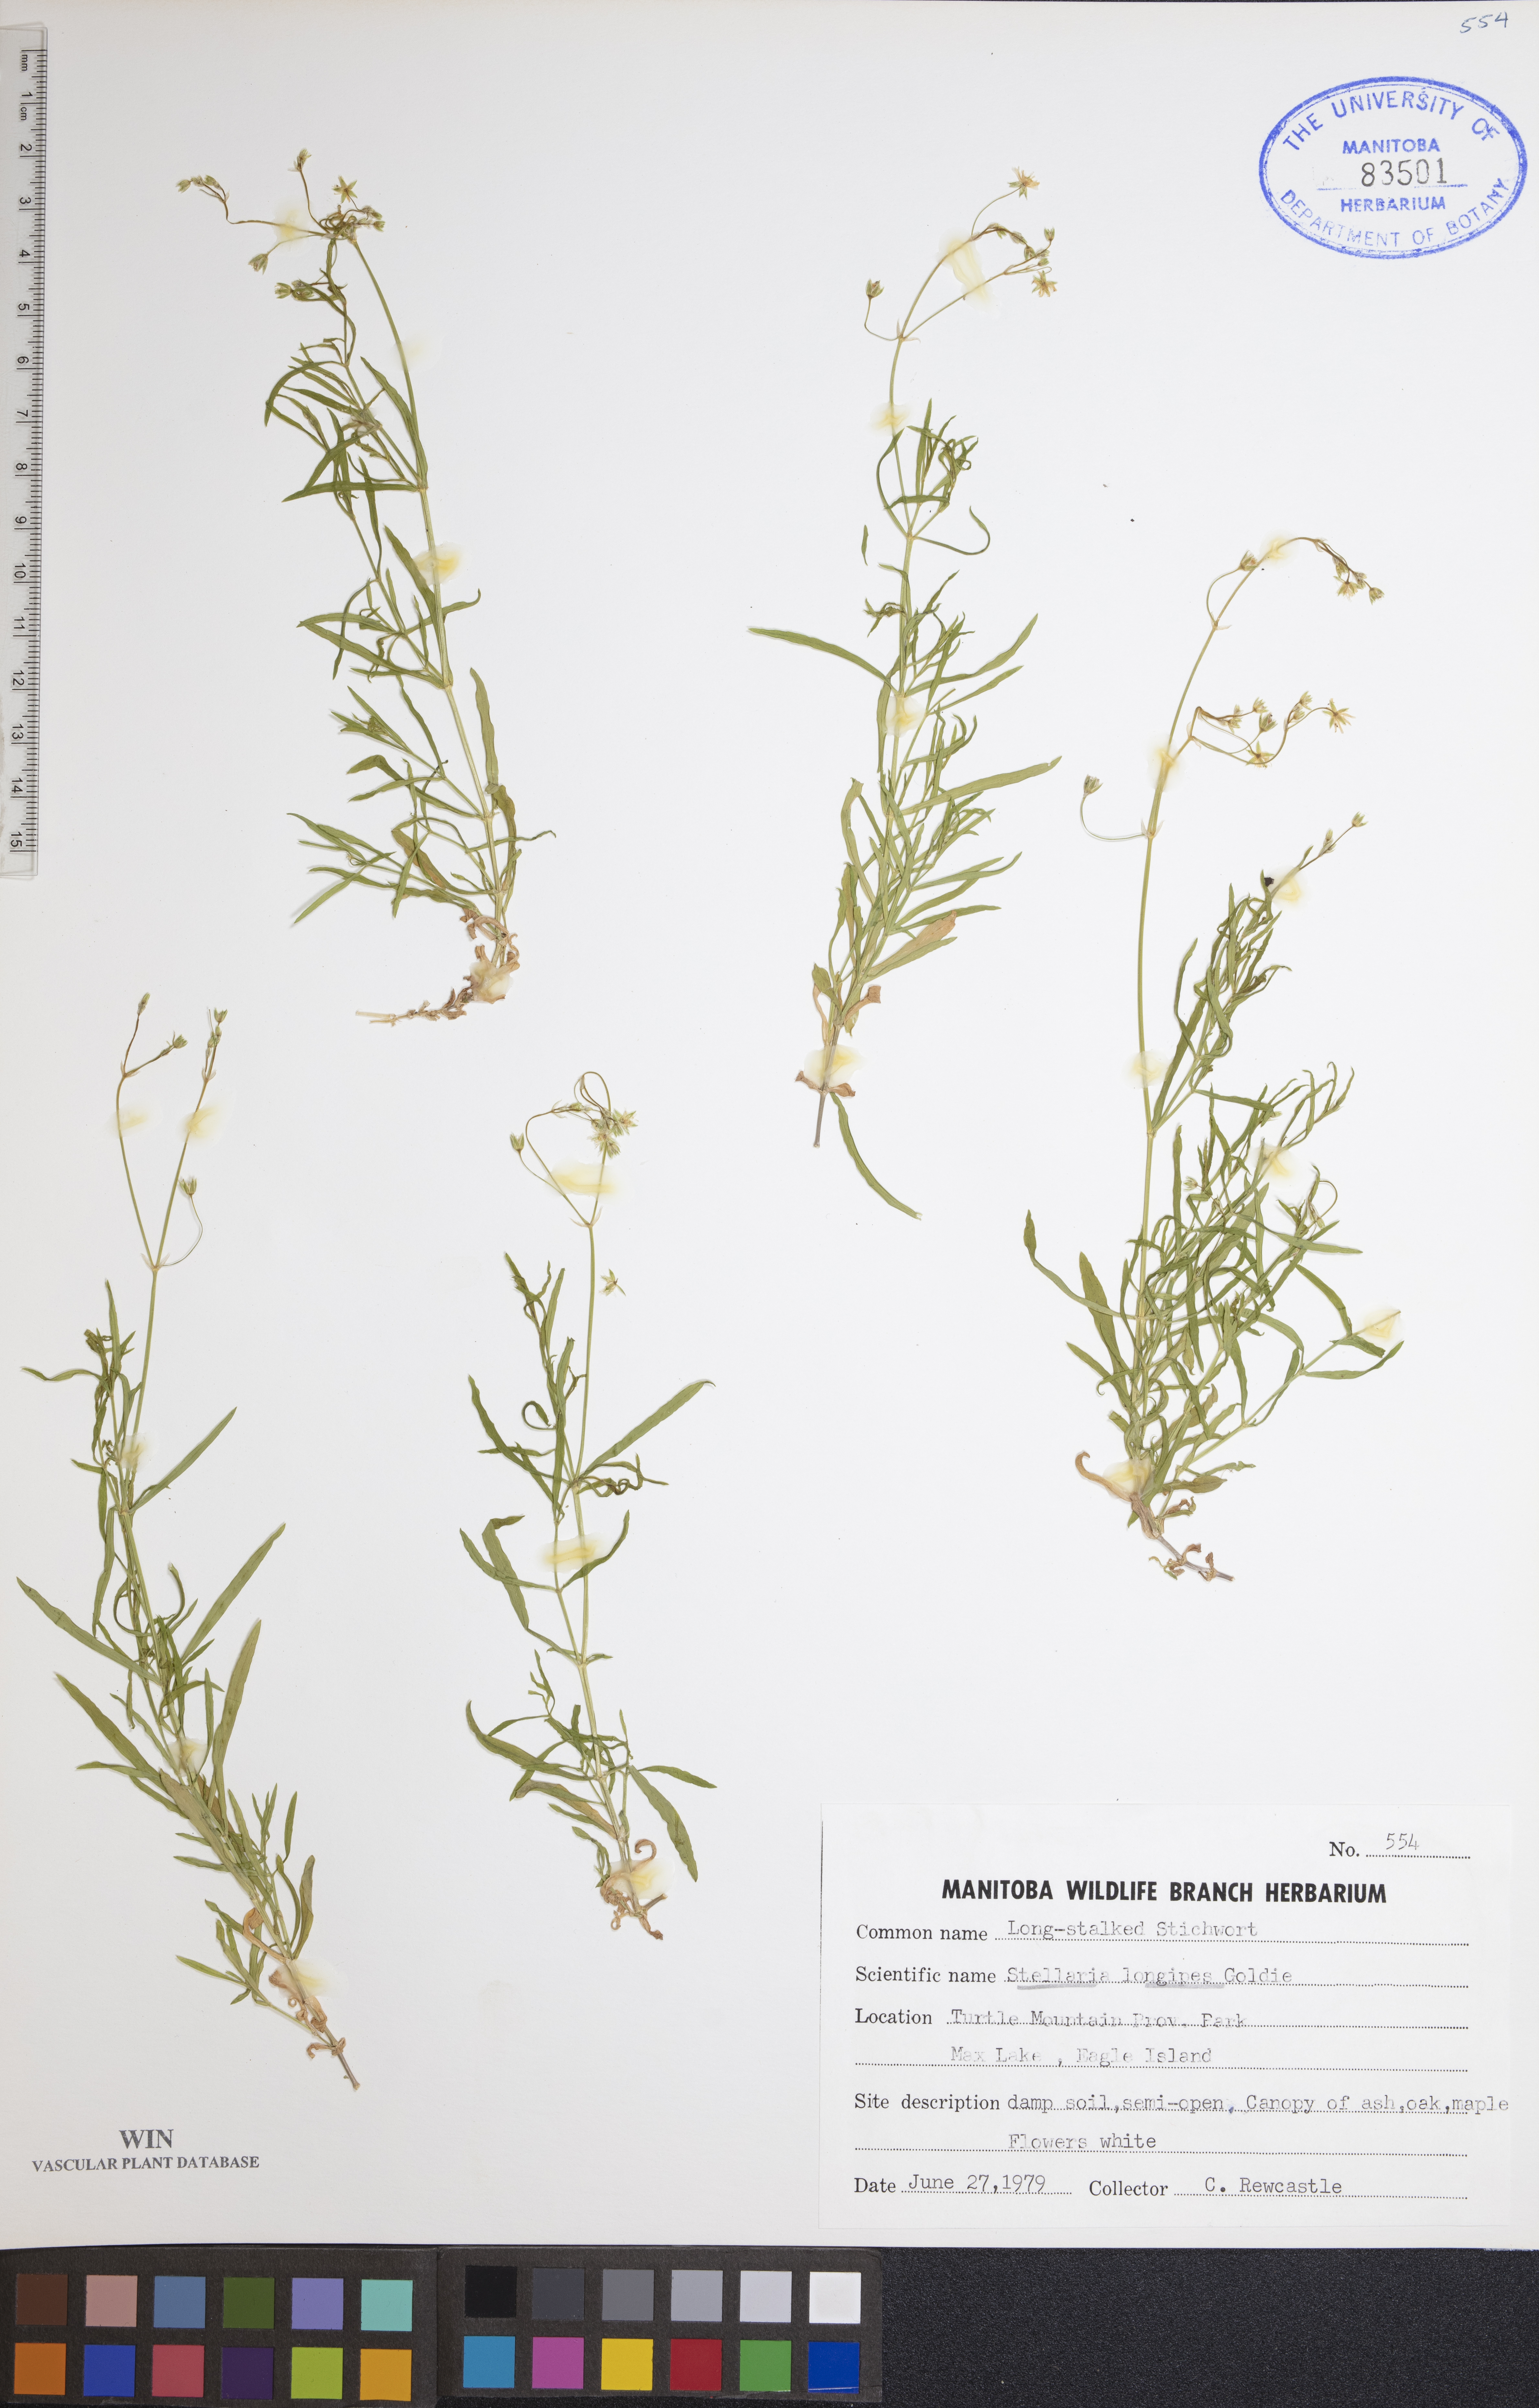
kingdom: Plantae
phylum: Tracheophyta
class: Magnoliopsida
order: Caryophyllales
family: Caryophyllaceae
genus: Stellaria
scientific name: Stellaria longipes
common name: Goldie's starwort
